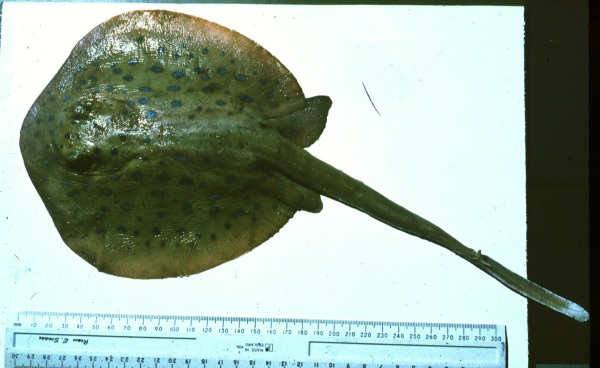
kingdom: Animalia
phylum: Chordata
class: Elasmobranchii
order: Myliobatiformes
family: Dasyatidae
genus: Taeniura
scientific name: Taeniura lymma
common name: Bluespotted ribbontail ray
